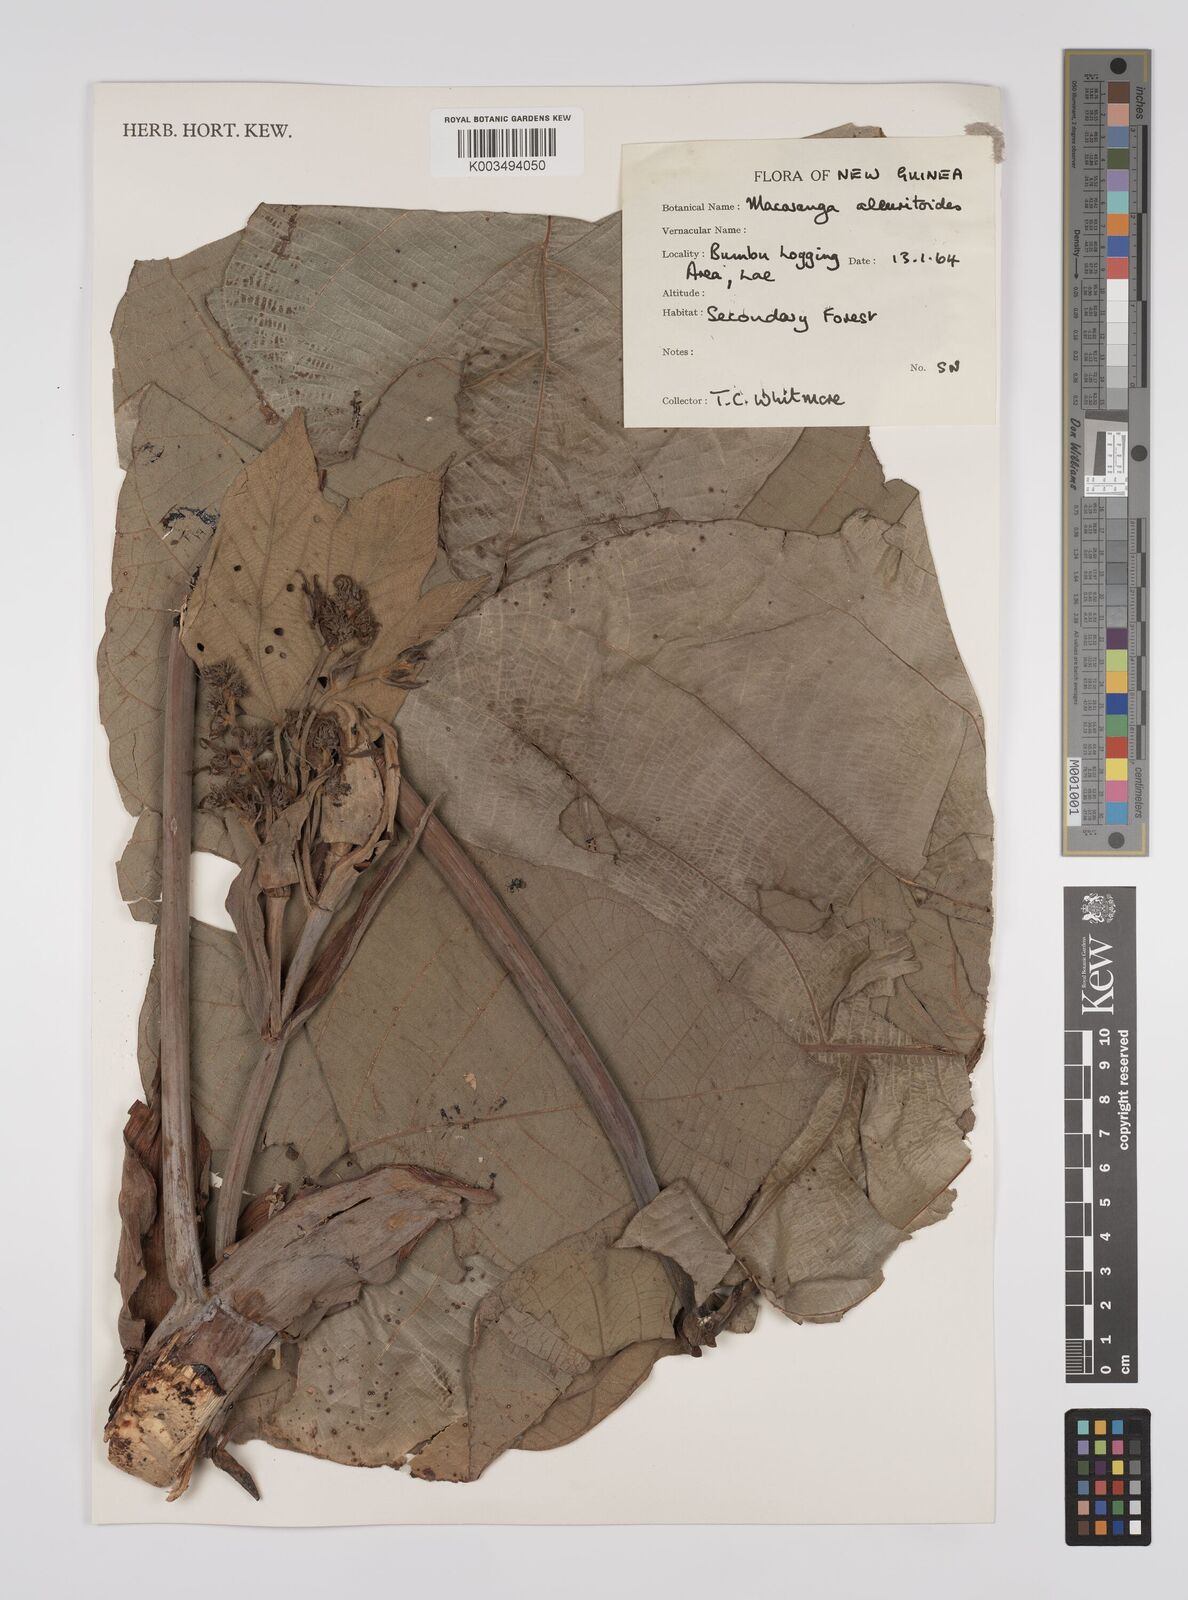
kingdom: Plantae
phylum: Tracheophyta
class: Magnoliopsida
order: Malpighiales
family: Euphorbiaceae
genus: Macaranga
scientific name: Macaranga aleuritoides
